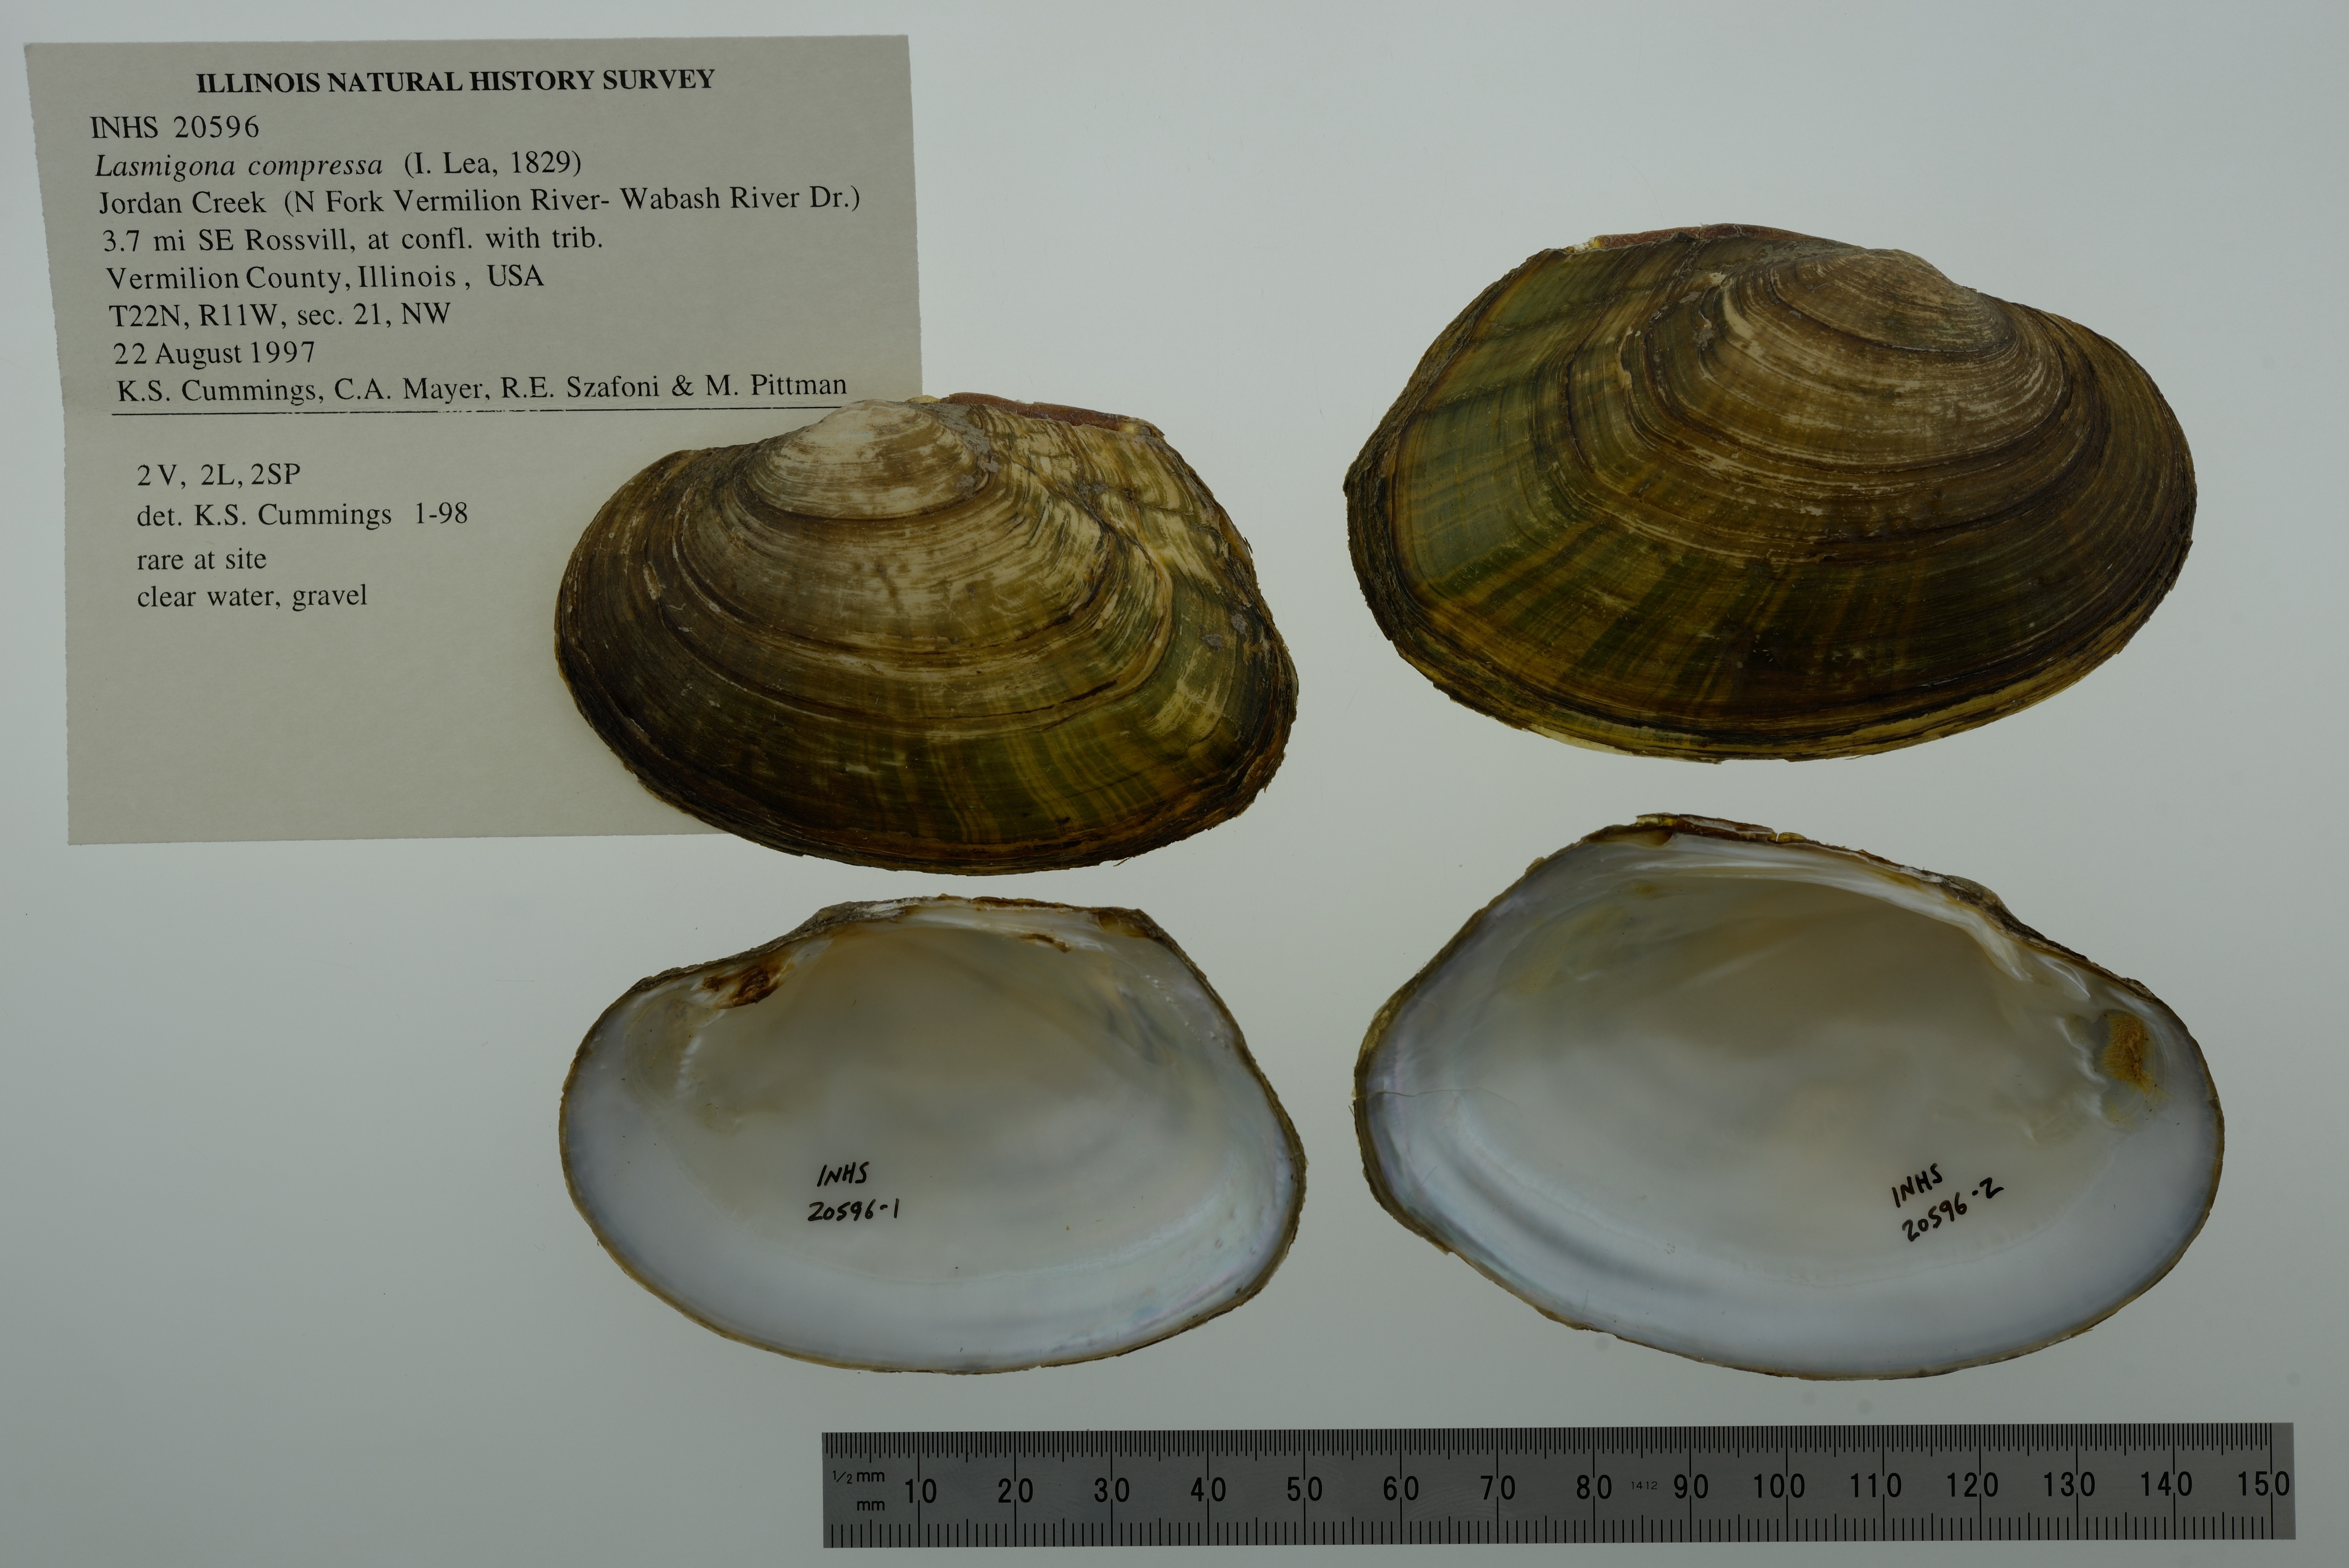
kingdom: Animalia
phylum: Mollusca
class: Bivalvia
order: Unionida
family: Unionidae
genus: Lasmigona
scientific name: Lasmigona compressa
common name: Creek heelsplitter
